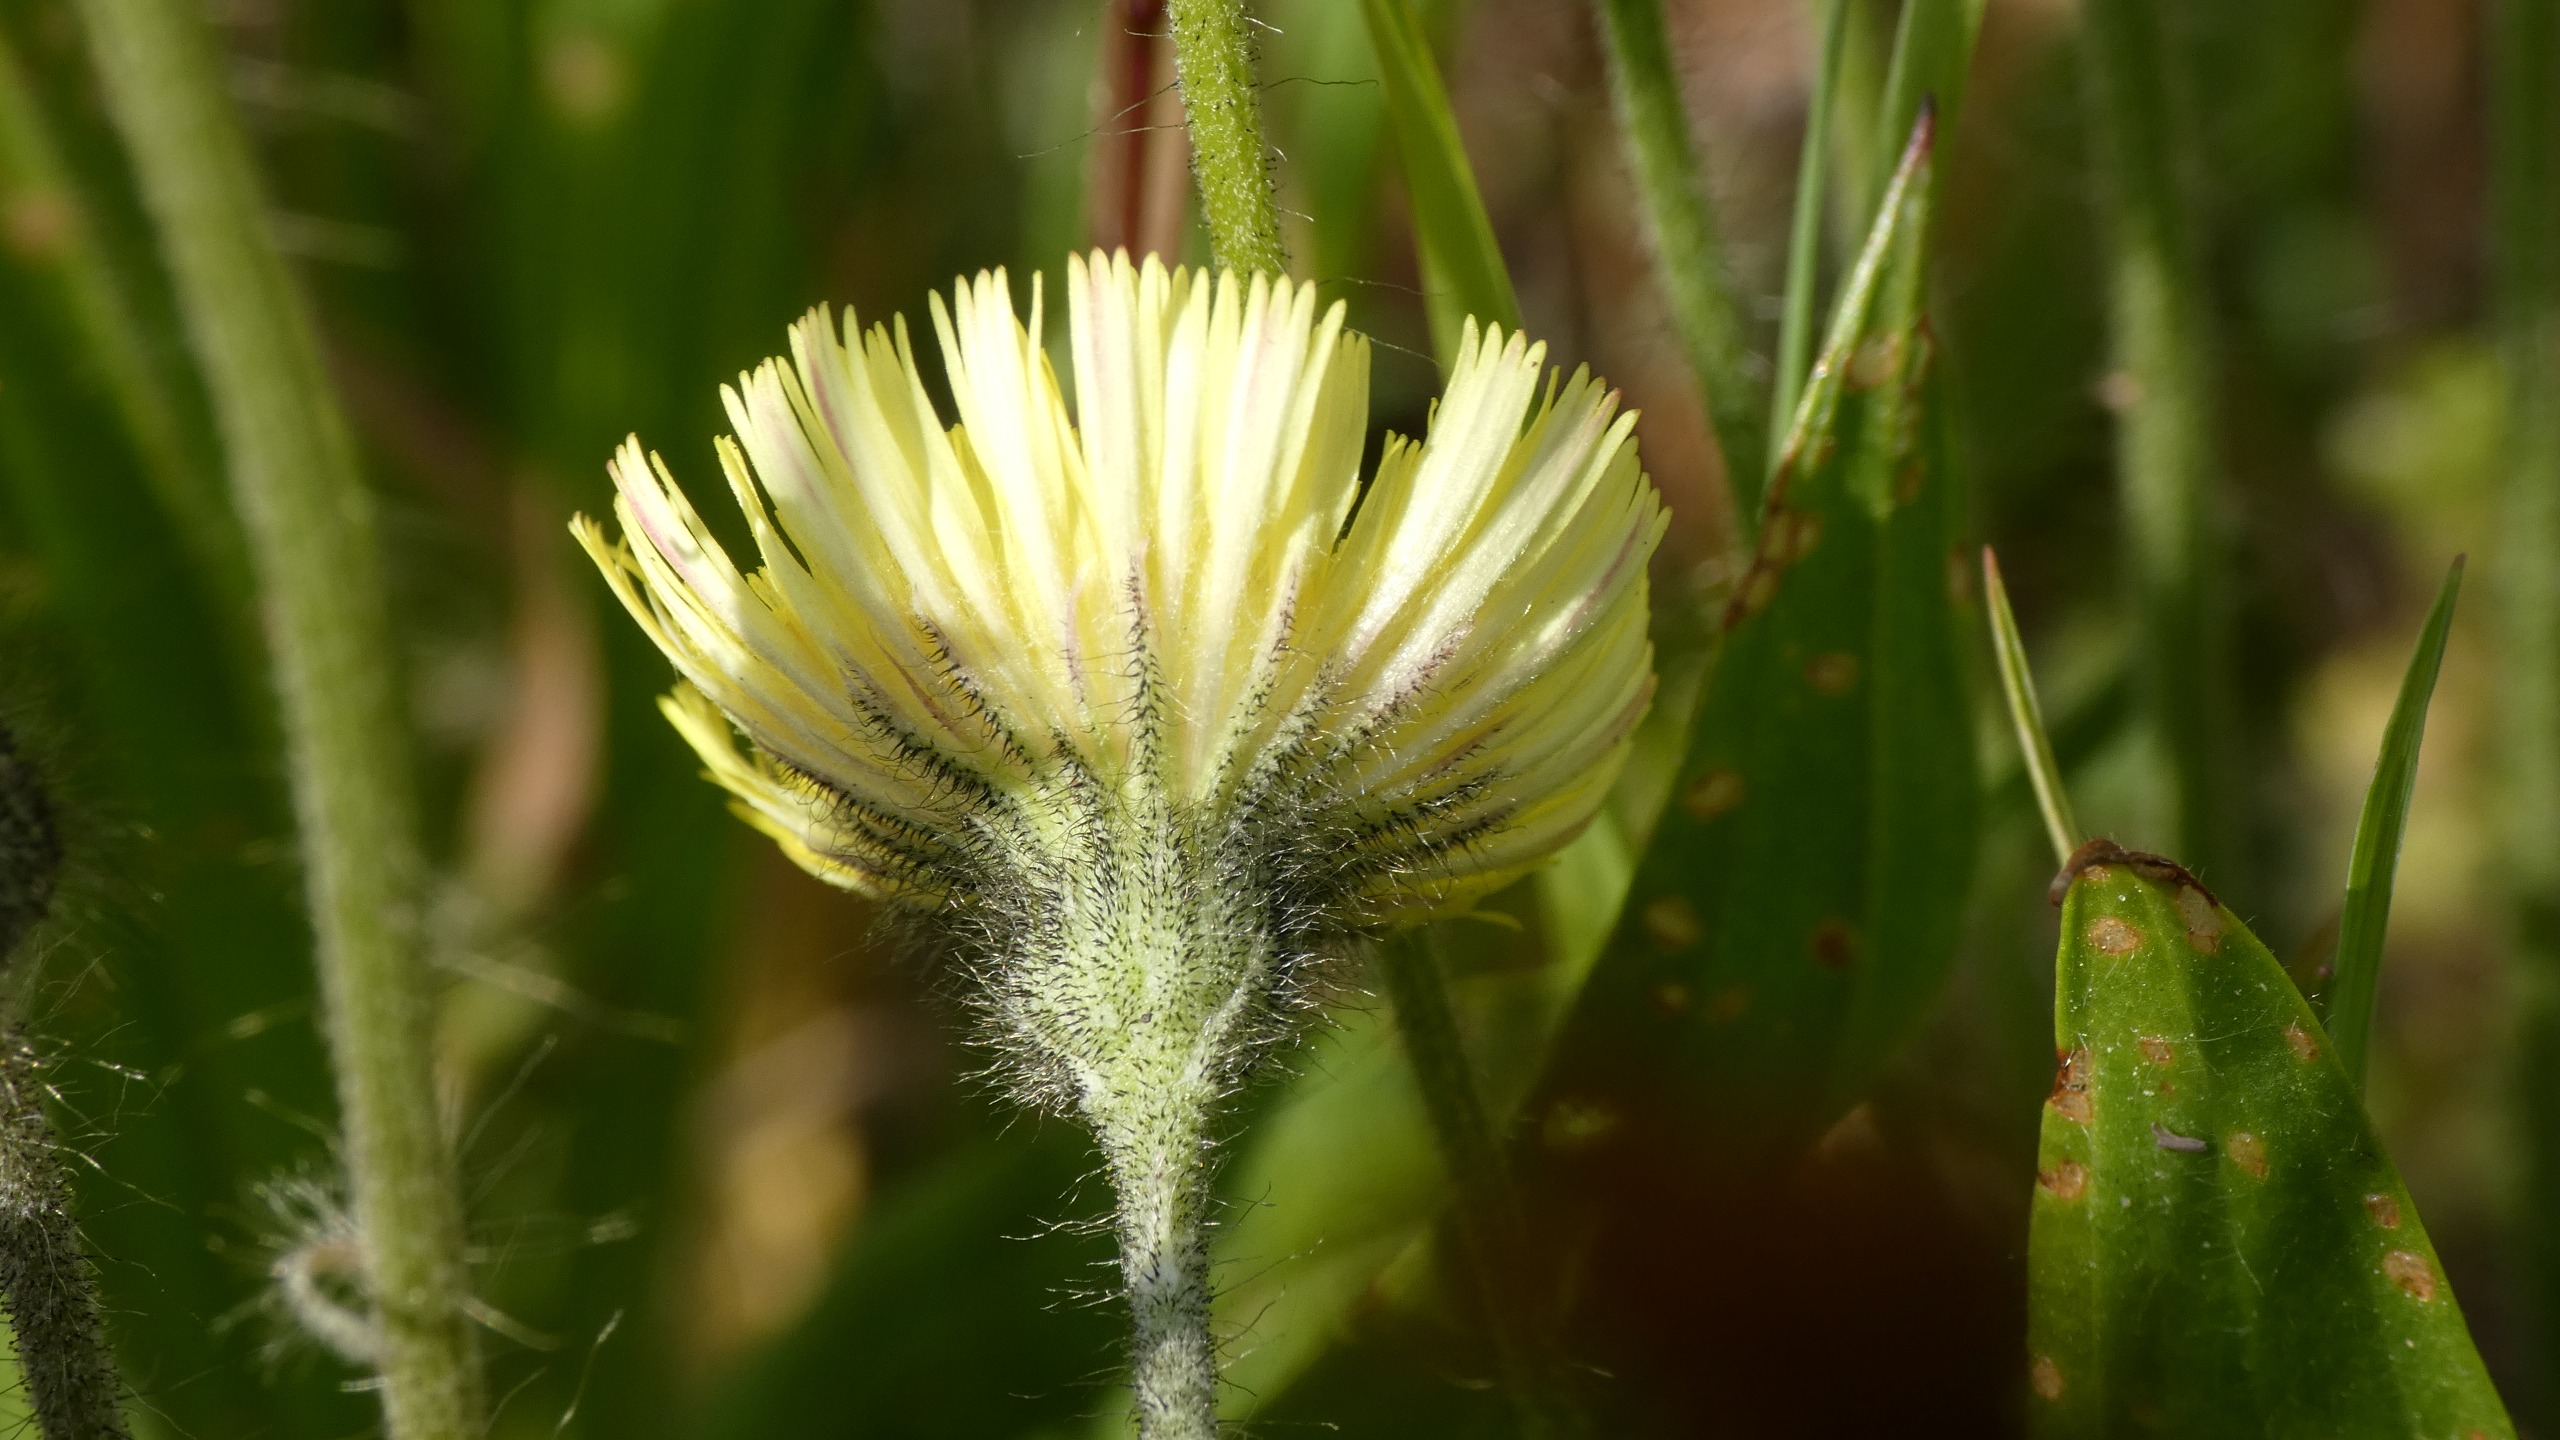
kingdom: Plantae
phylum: Tracheophyta
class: Magnoliopsida
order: Asterales
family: Asteraceae
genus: Pilosella
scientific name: Pilosella officinarum
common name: Håret høgeurt
